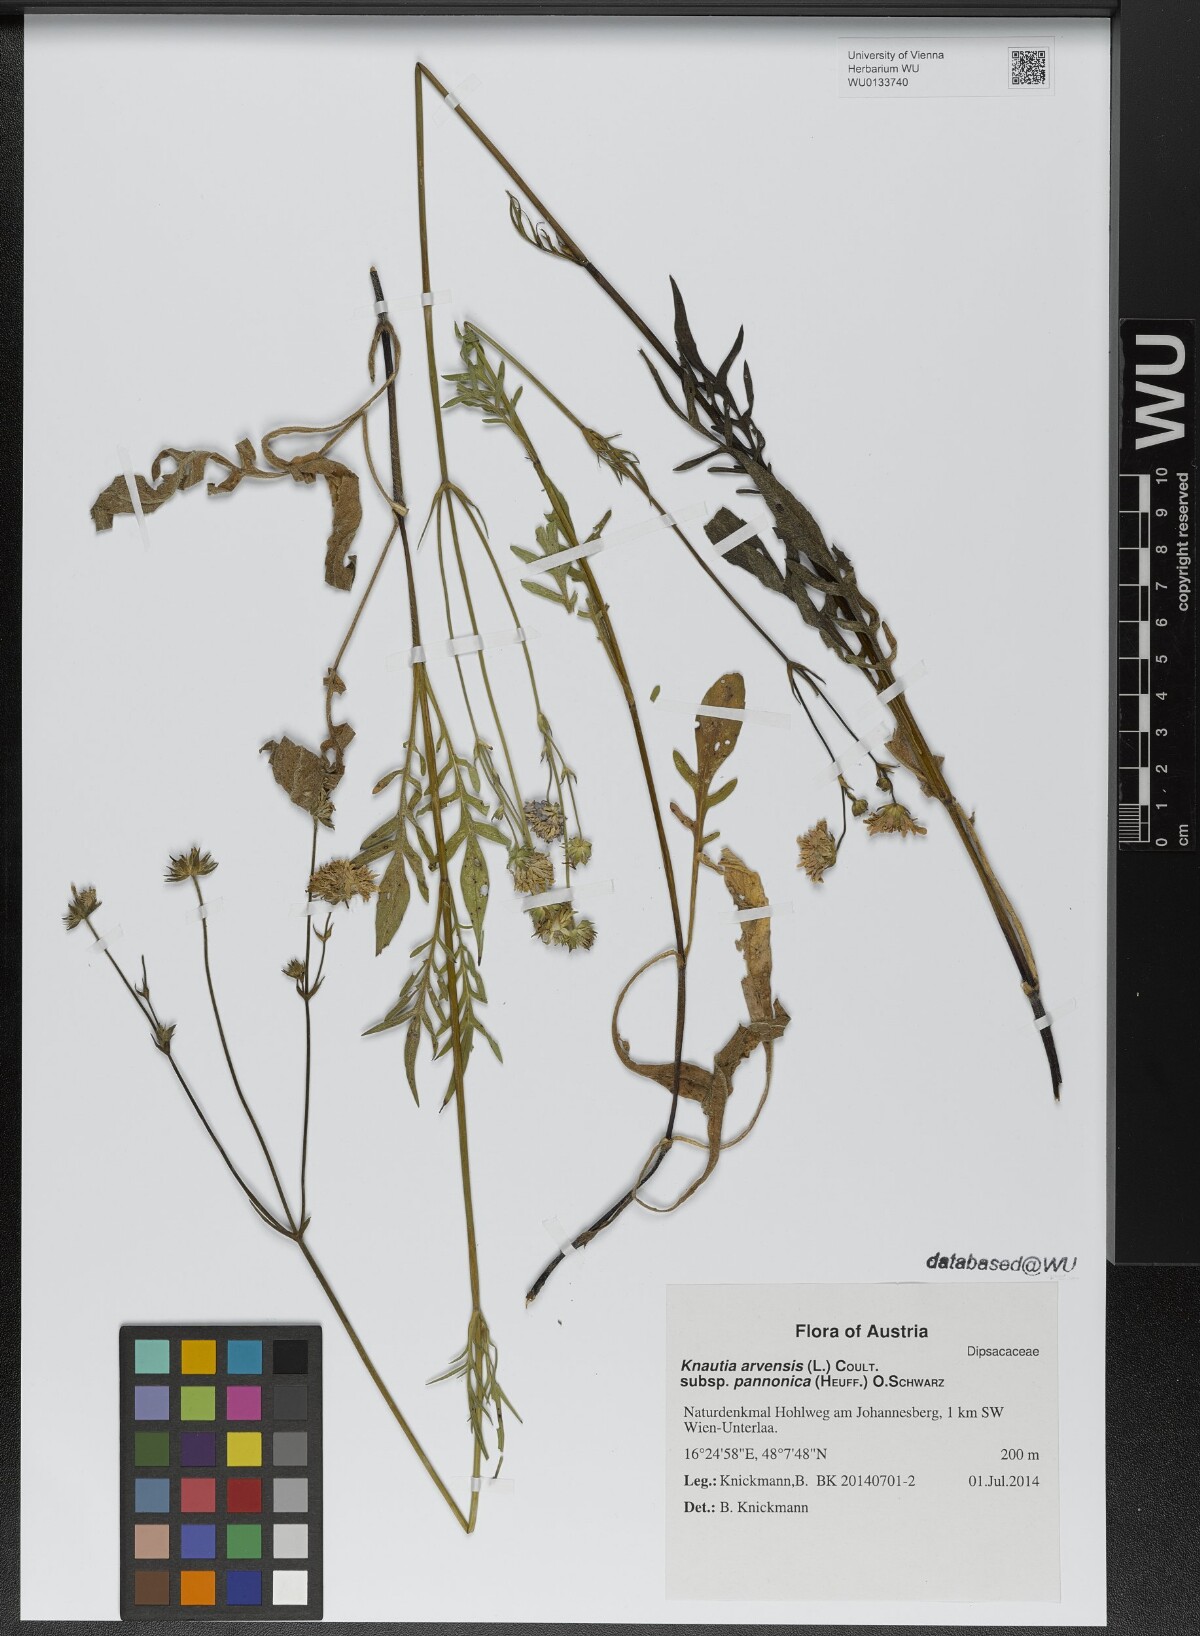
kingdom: Plantae
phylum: Tracheophyta
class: Magnoliopsida
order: Dipsacales
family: Caprifoliaceae
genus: Knautia
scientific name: Knautia arvensis
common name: Field scabiosa
